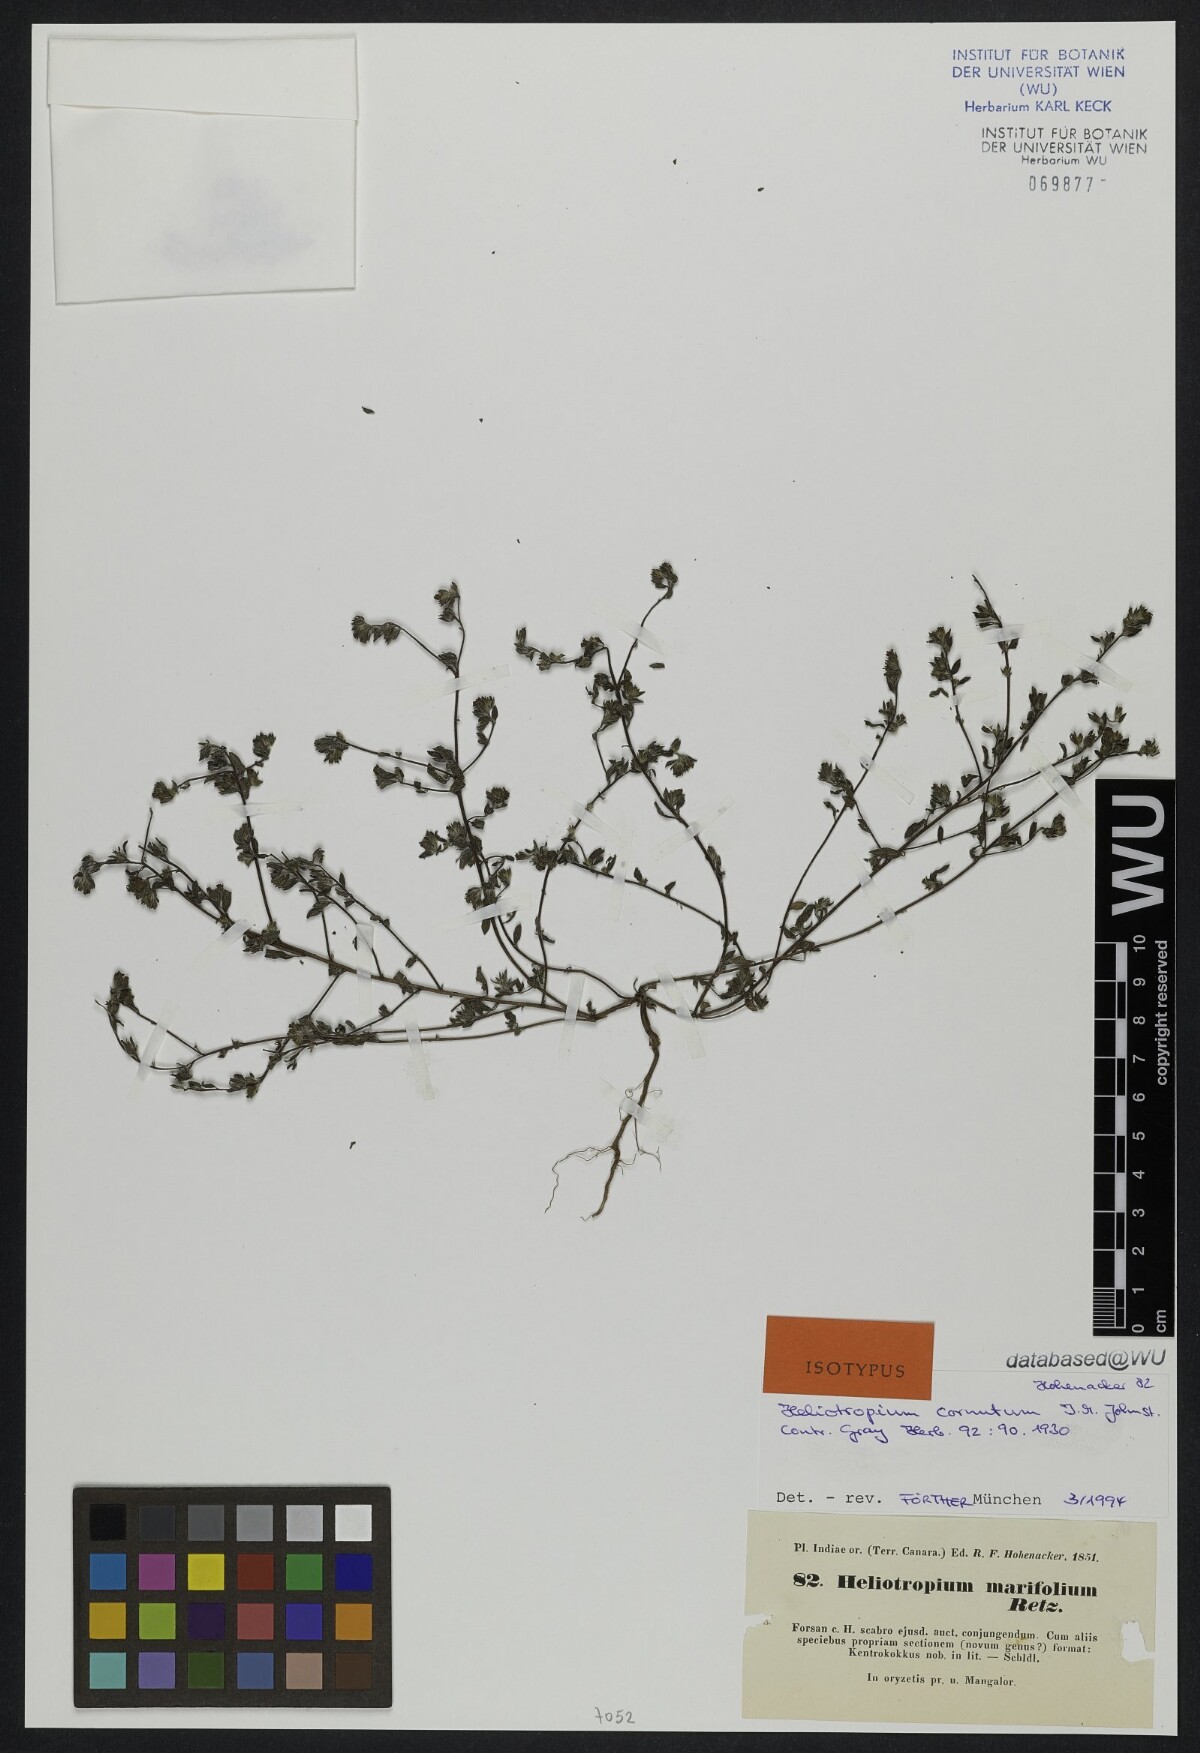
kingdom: Plantae
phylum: Tracheophyta
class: Magnoliopsida
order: Boraginales
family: Heliotropiaceae
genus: Euploca
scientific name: Euploca cornuta
